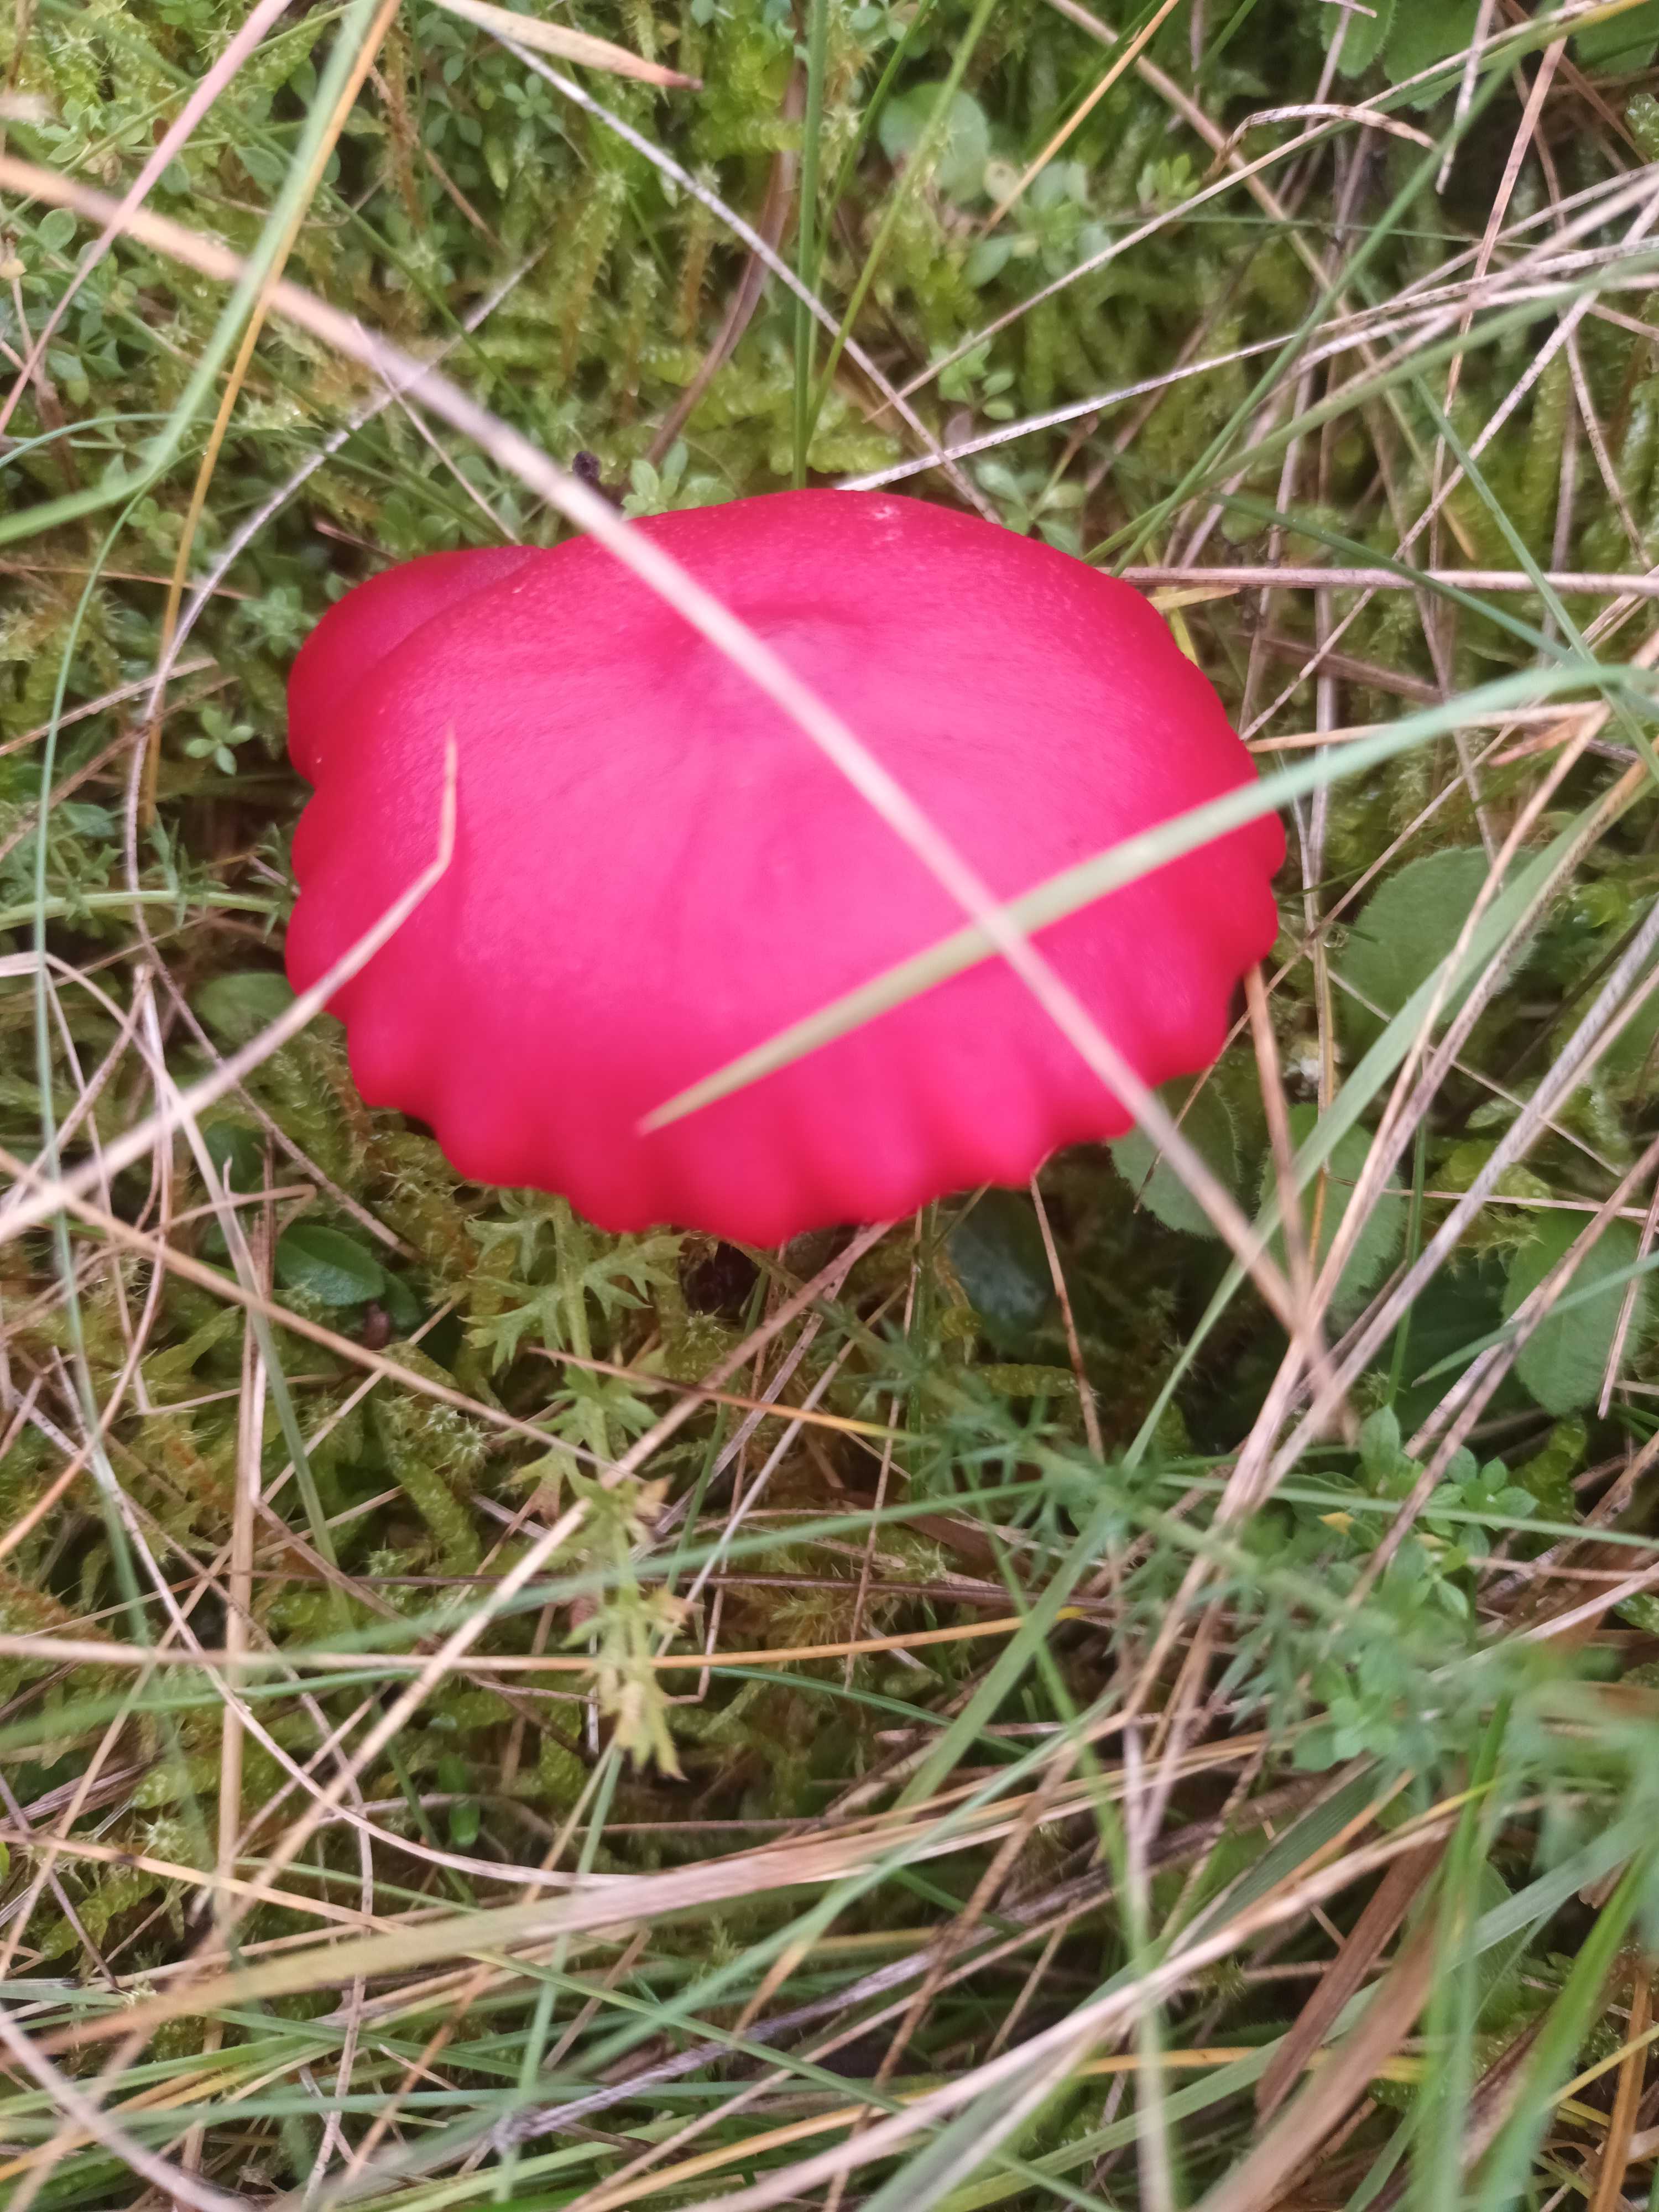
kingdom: Fungi
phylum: Basidiomycota
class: Agaricomycetes
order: Agaricales
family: Hygrophoraceae
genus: Hygrocybe
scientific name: Hygrocybe
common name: vokshat
